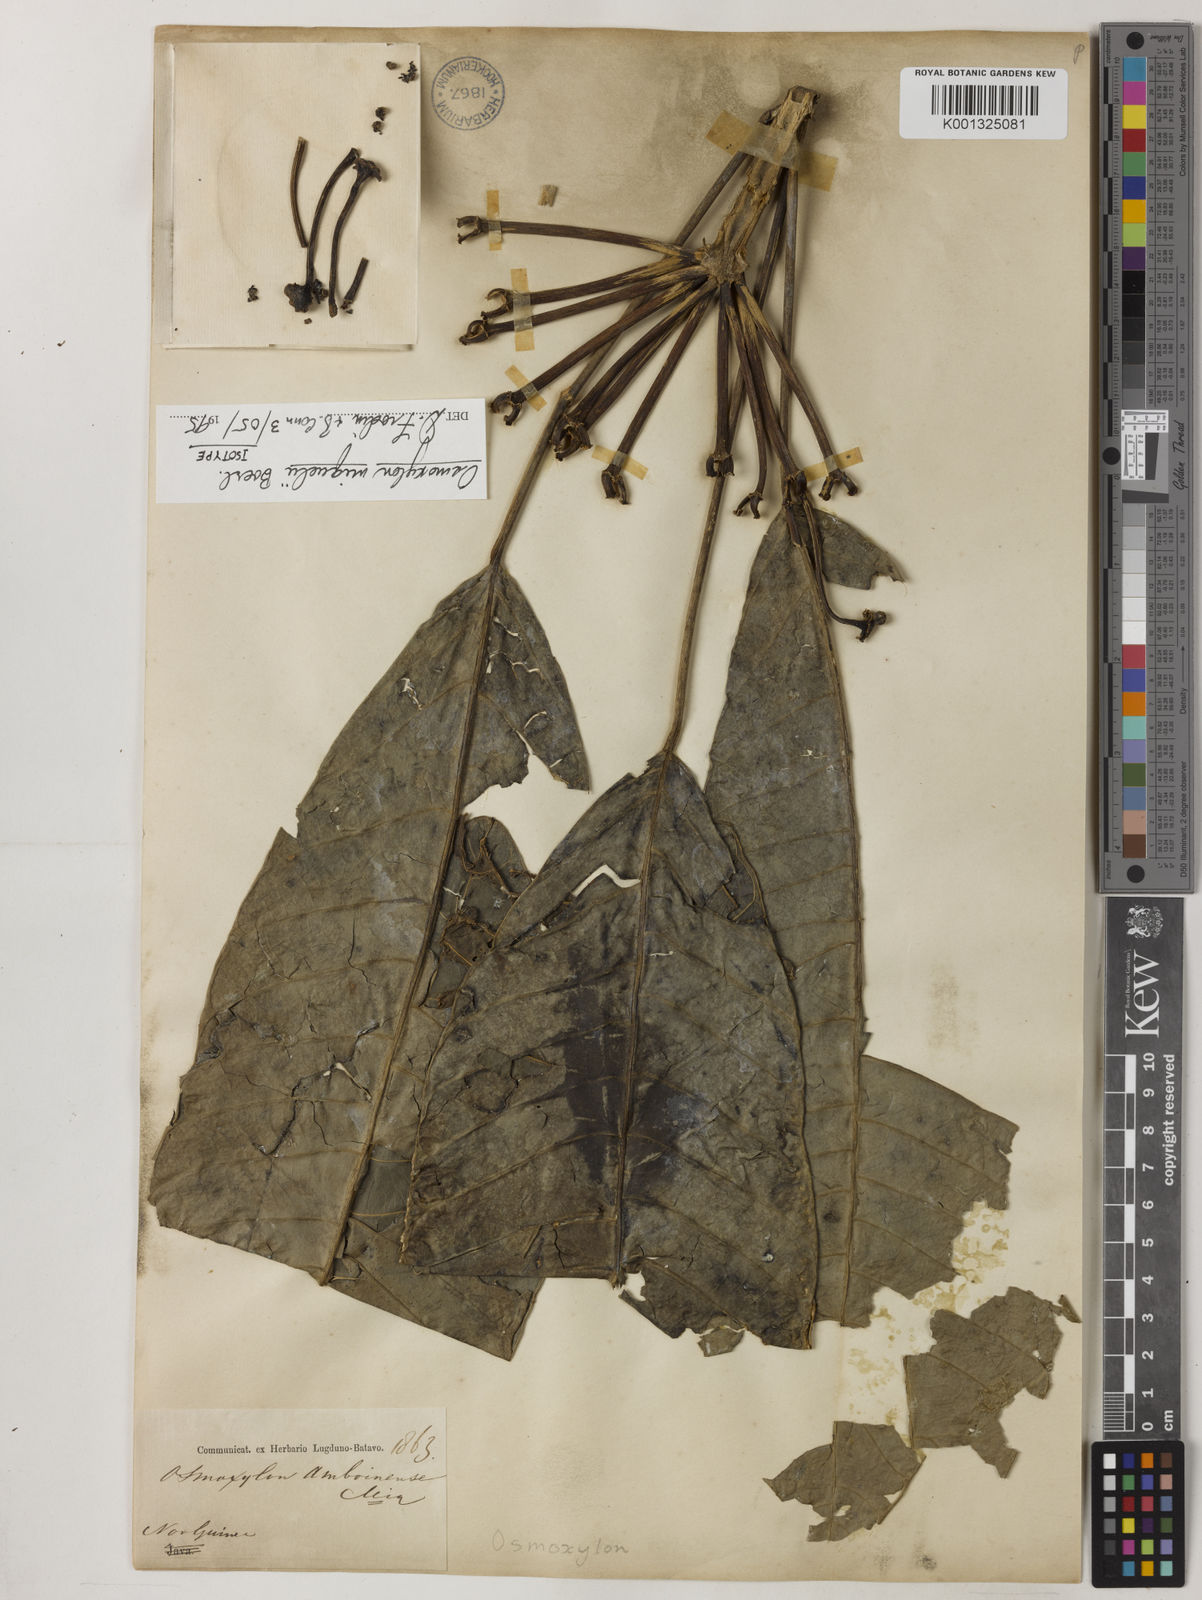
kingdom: Plantae
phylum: Tracheophyta
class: Magnoliopsida
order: Apiales
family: Araliaceae
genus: Osmoxylon
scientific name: Osmoxylon
